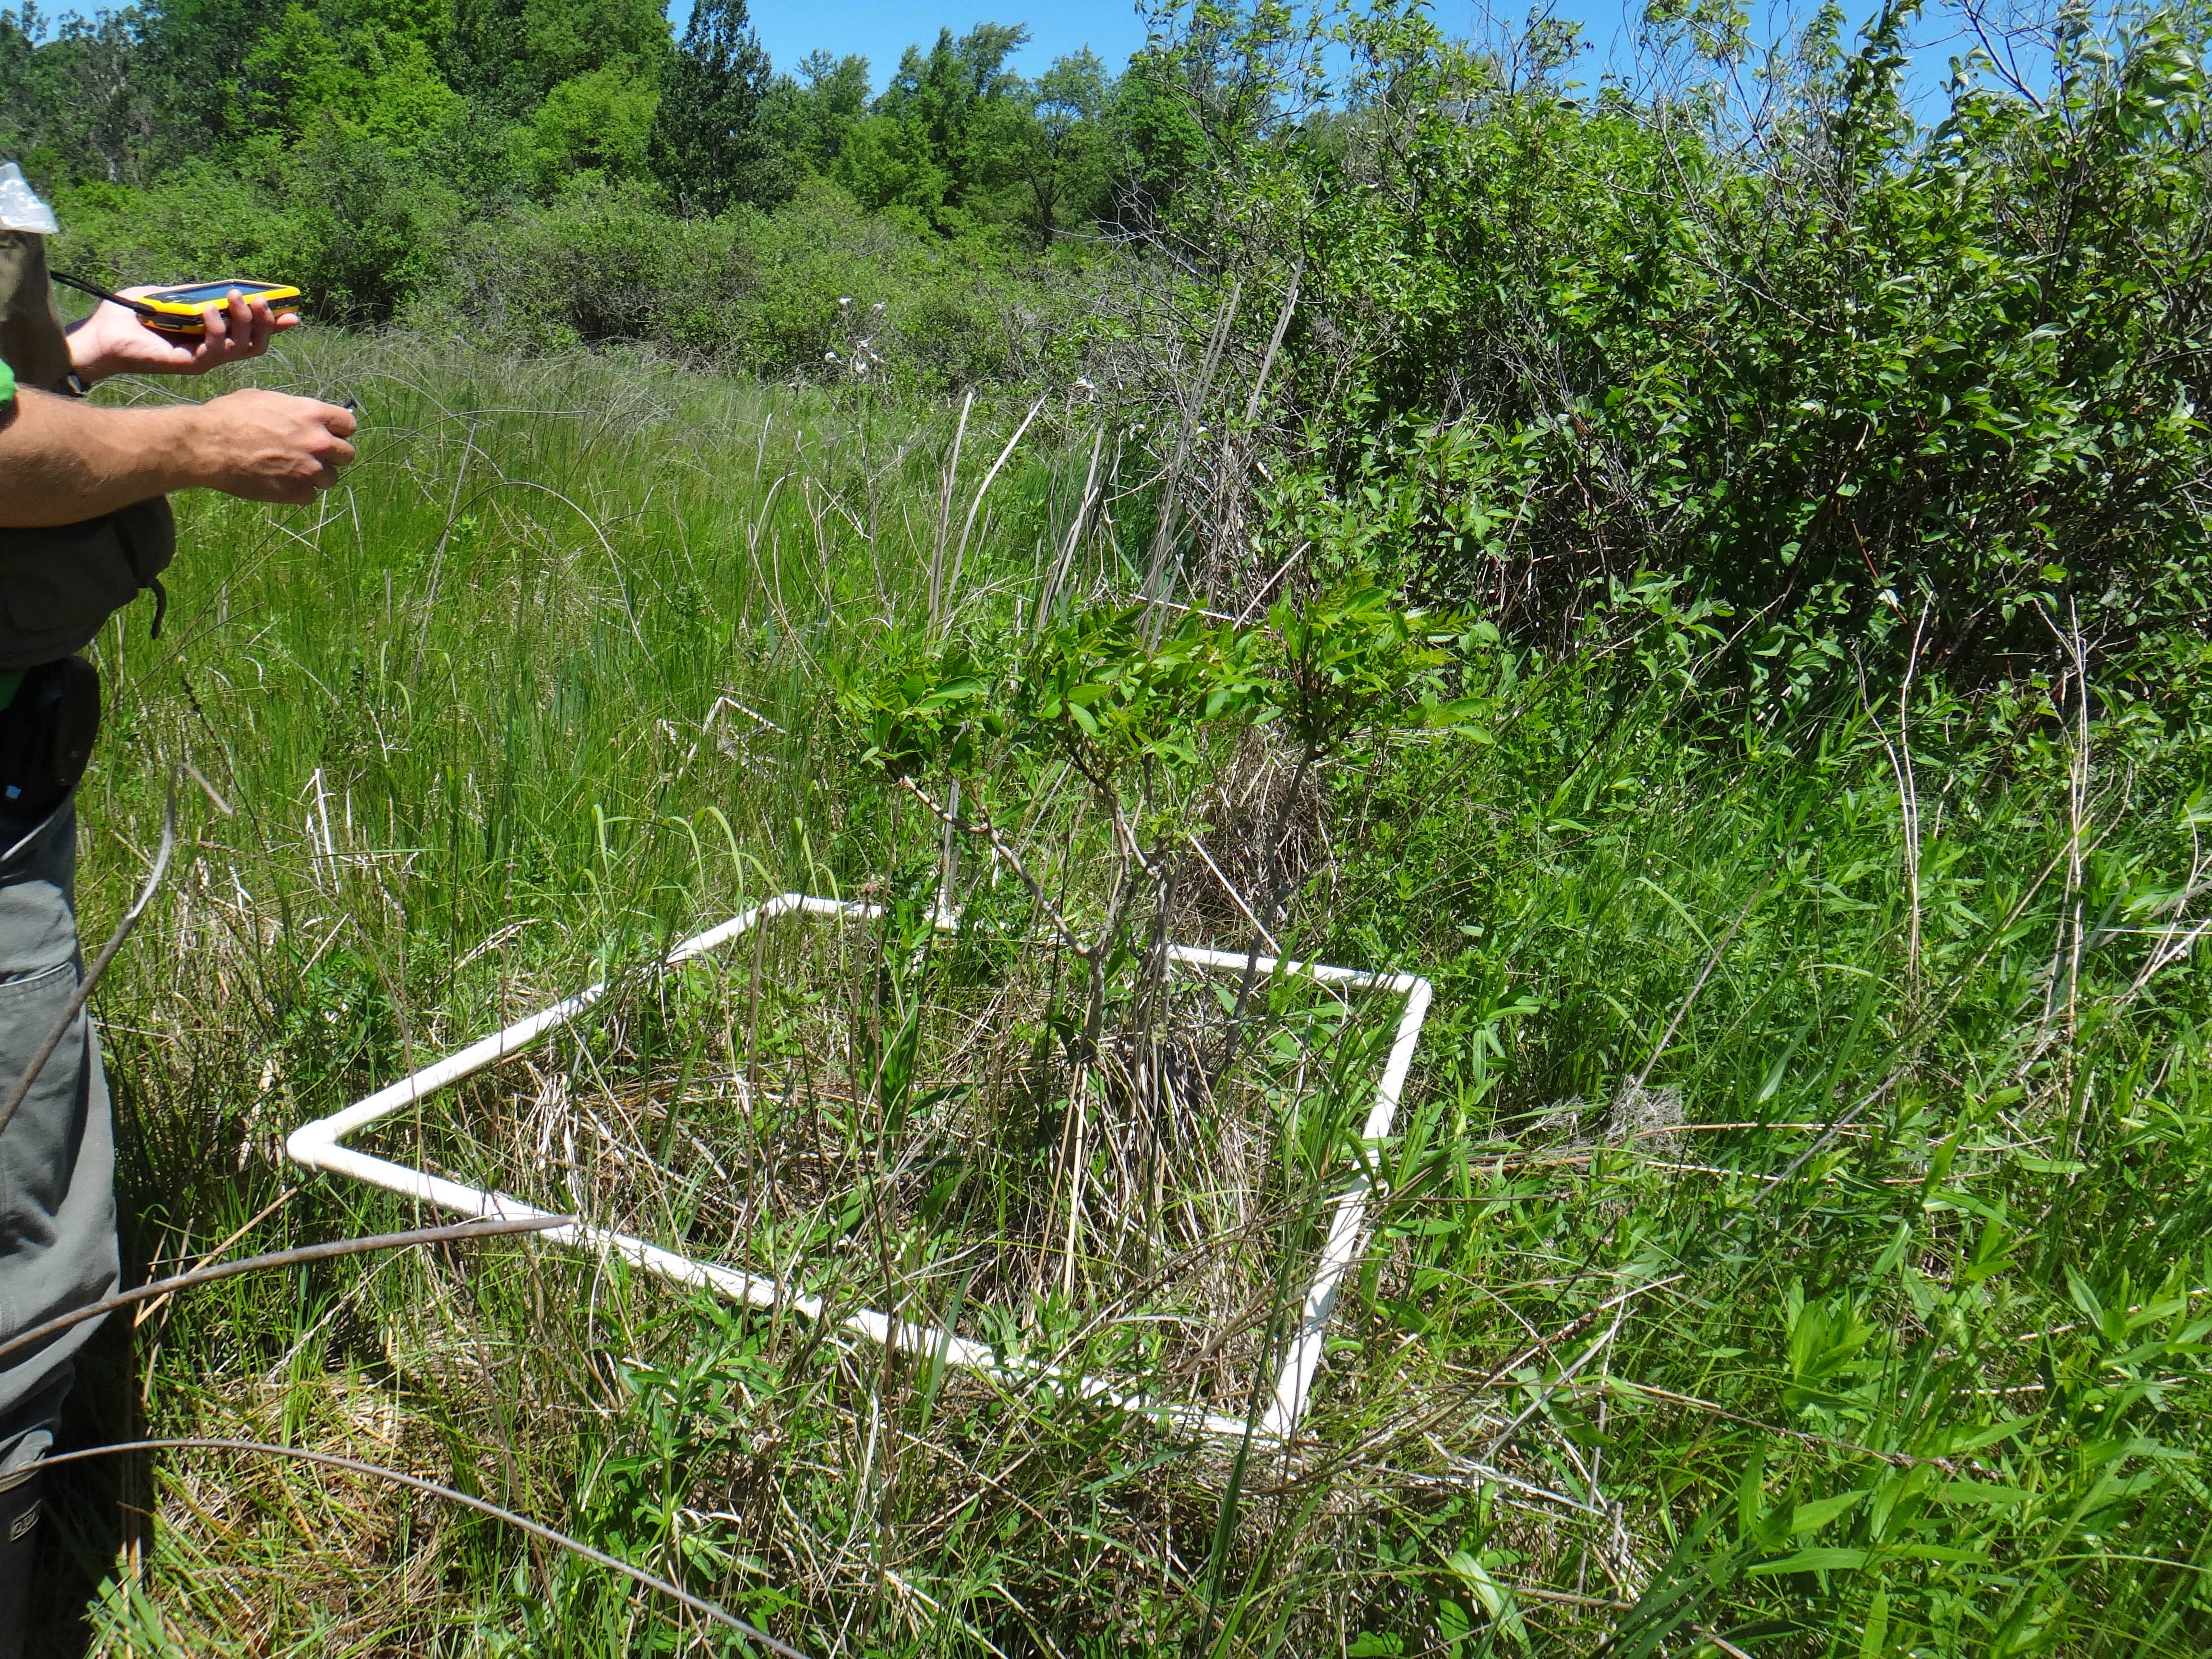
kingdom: Plantae
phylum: Tracheophyta
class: Liliopsida
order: Poales
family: Cyperaceae
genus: Carex
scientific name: Carex lasiocarpa
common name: Slender sedge
